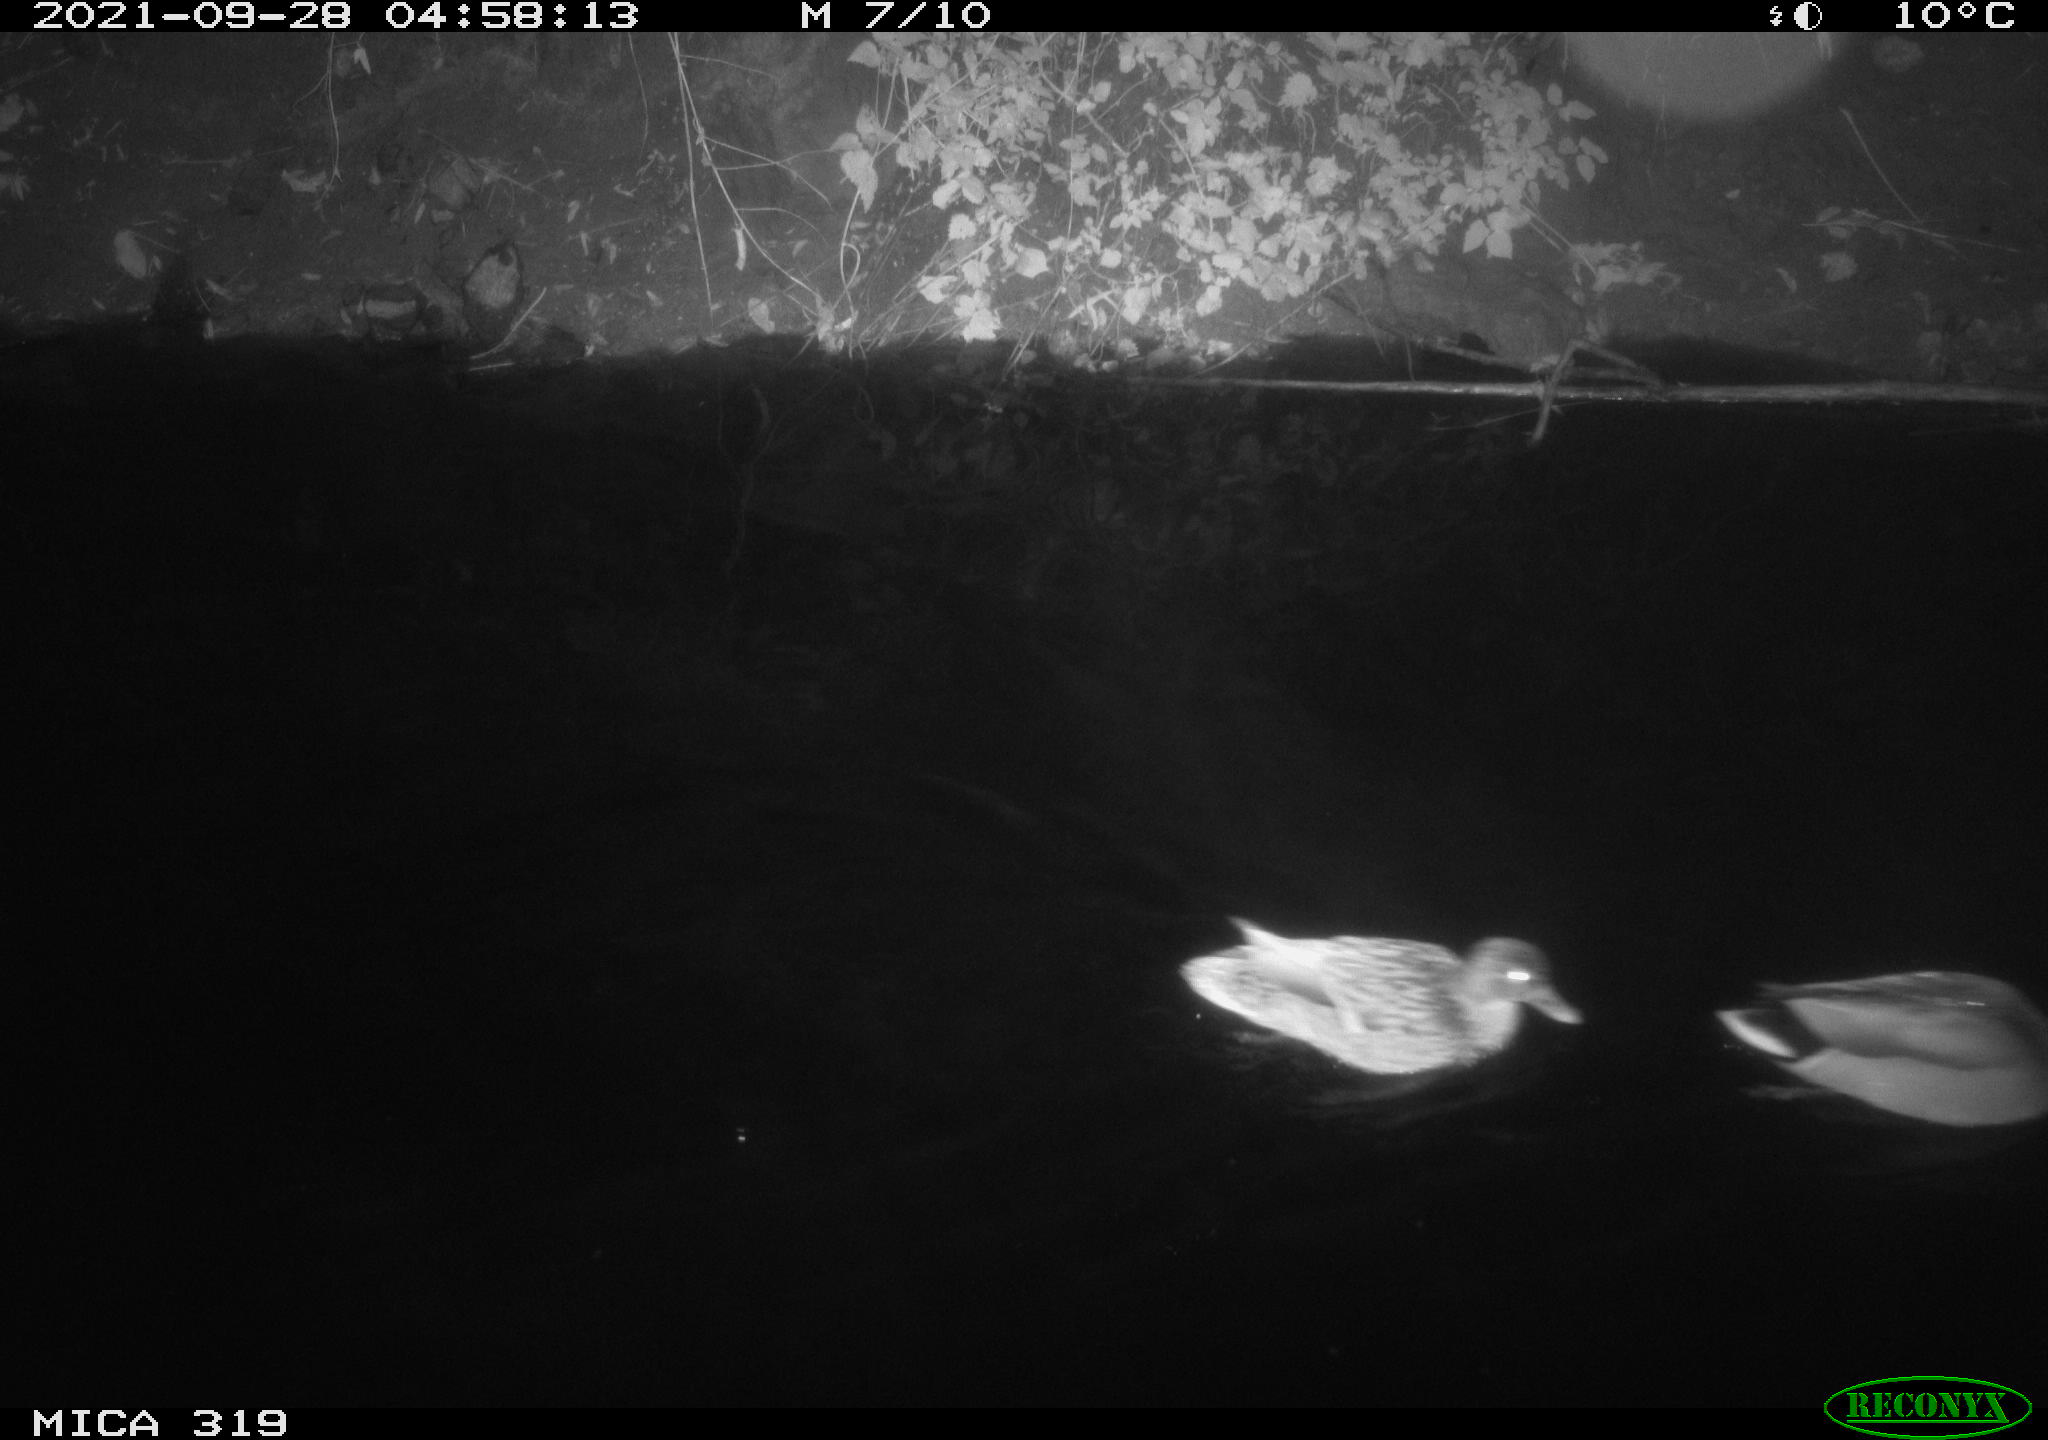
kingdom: Animalia
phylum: Chordata
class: Aves
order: Anseriformes
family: Anatidae
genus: Anas
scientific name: Anas platyrhynchos
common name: Mallard
